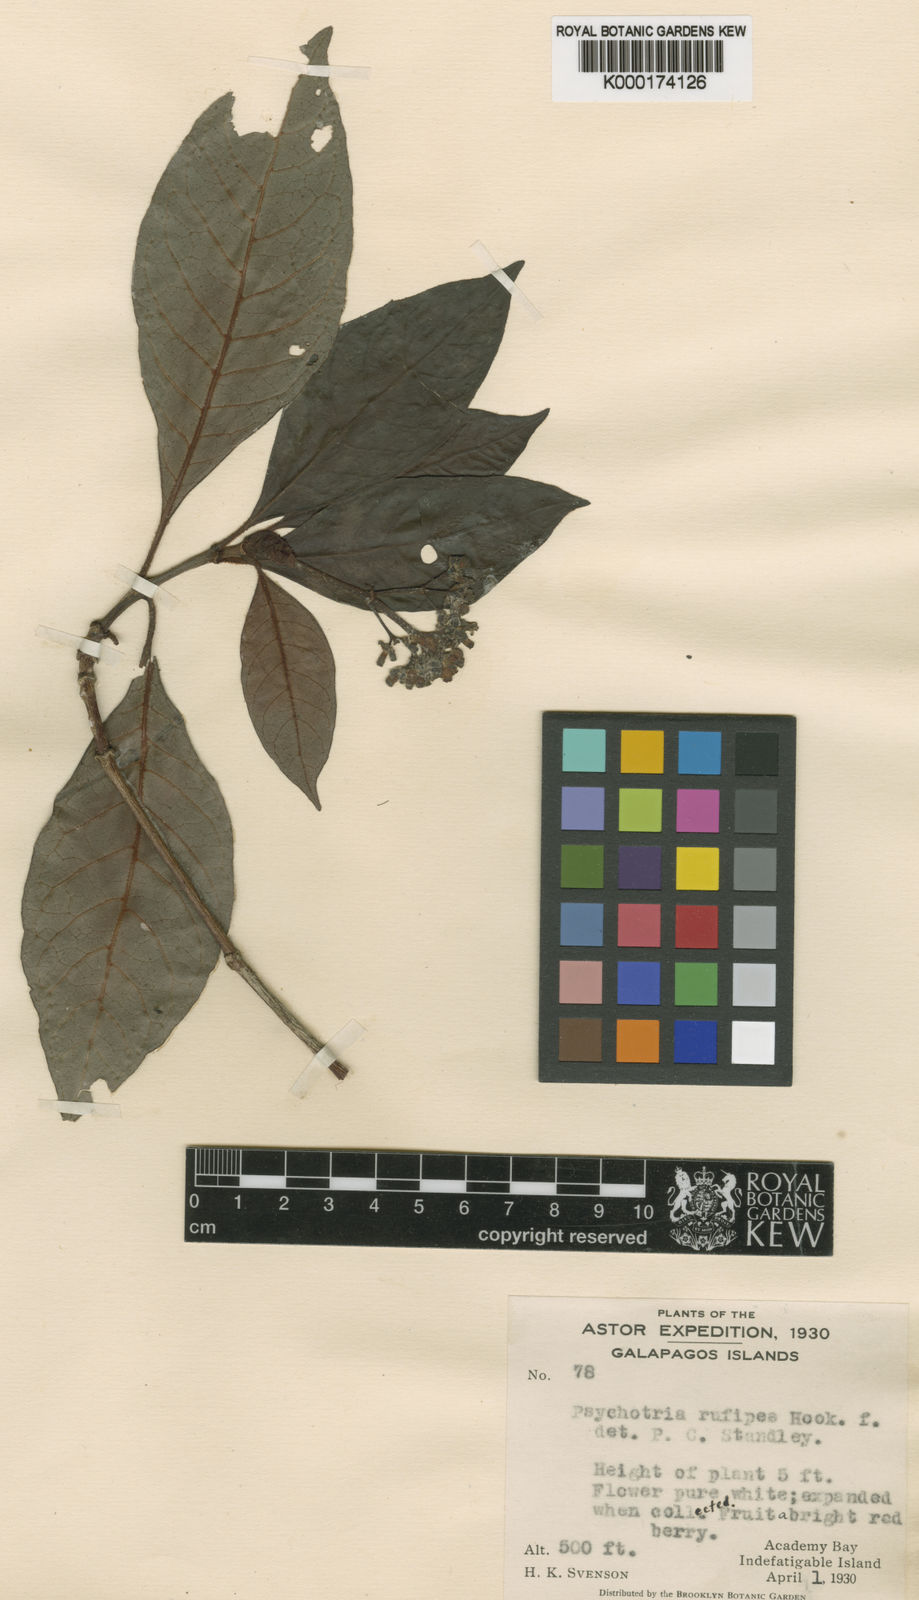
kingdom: Plantae
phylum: Tracheophyta
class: Magnoliopsida
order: Gentianales
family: Rubiaceae
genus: Psychotria
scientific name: Psychotria rufipes
